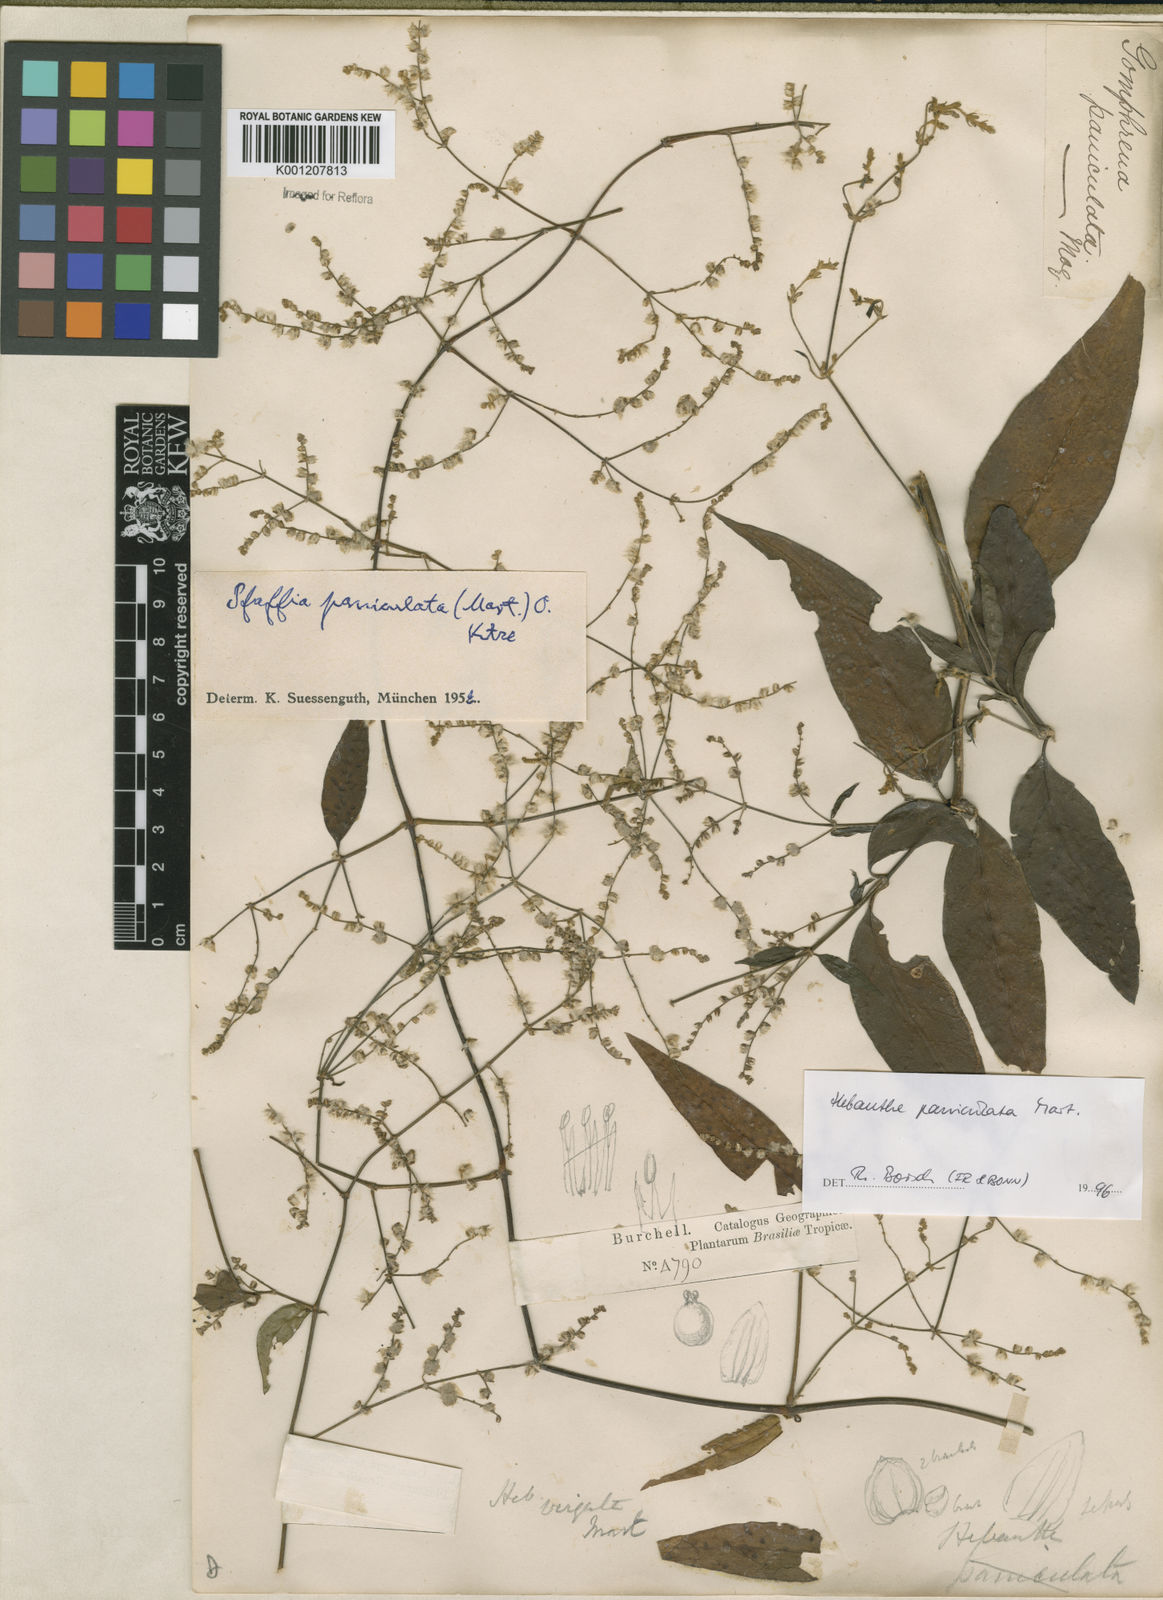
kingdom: Plantae
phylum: Tracheophyta
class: Magnoliopsida
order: Caryophyllales
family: Amaranthaceae
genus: Hebanthe
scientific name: Hebanthe erianthos
